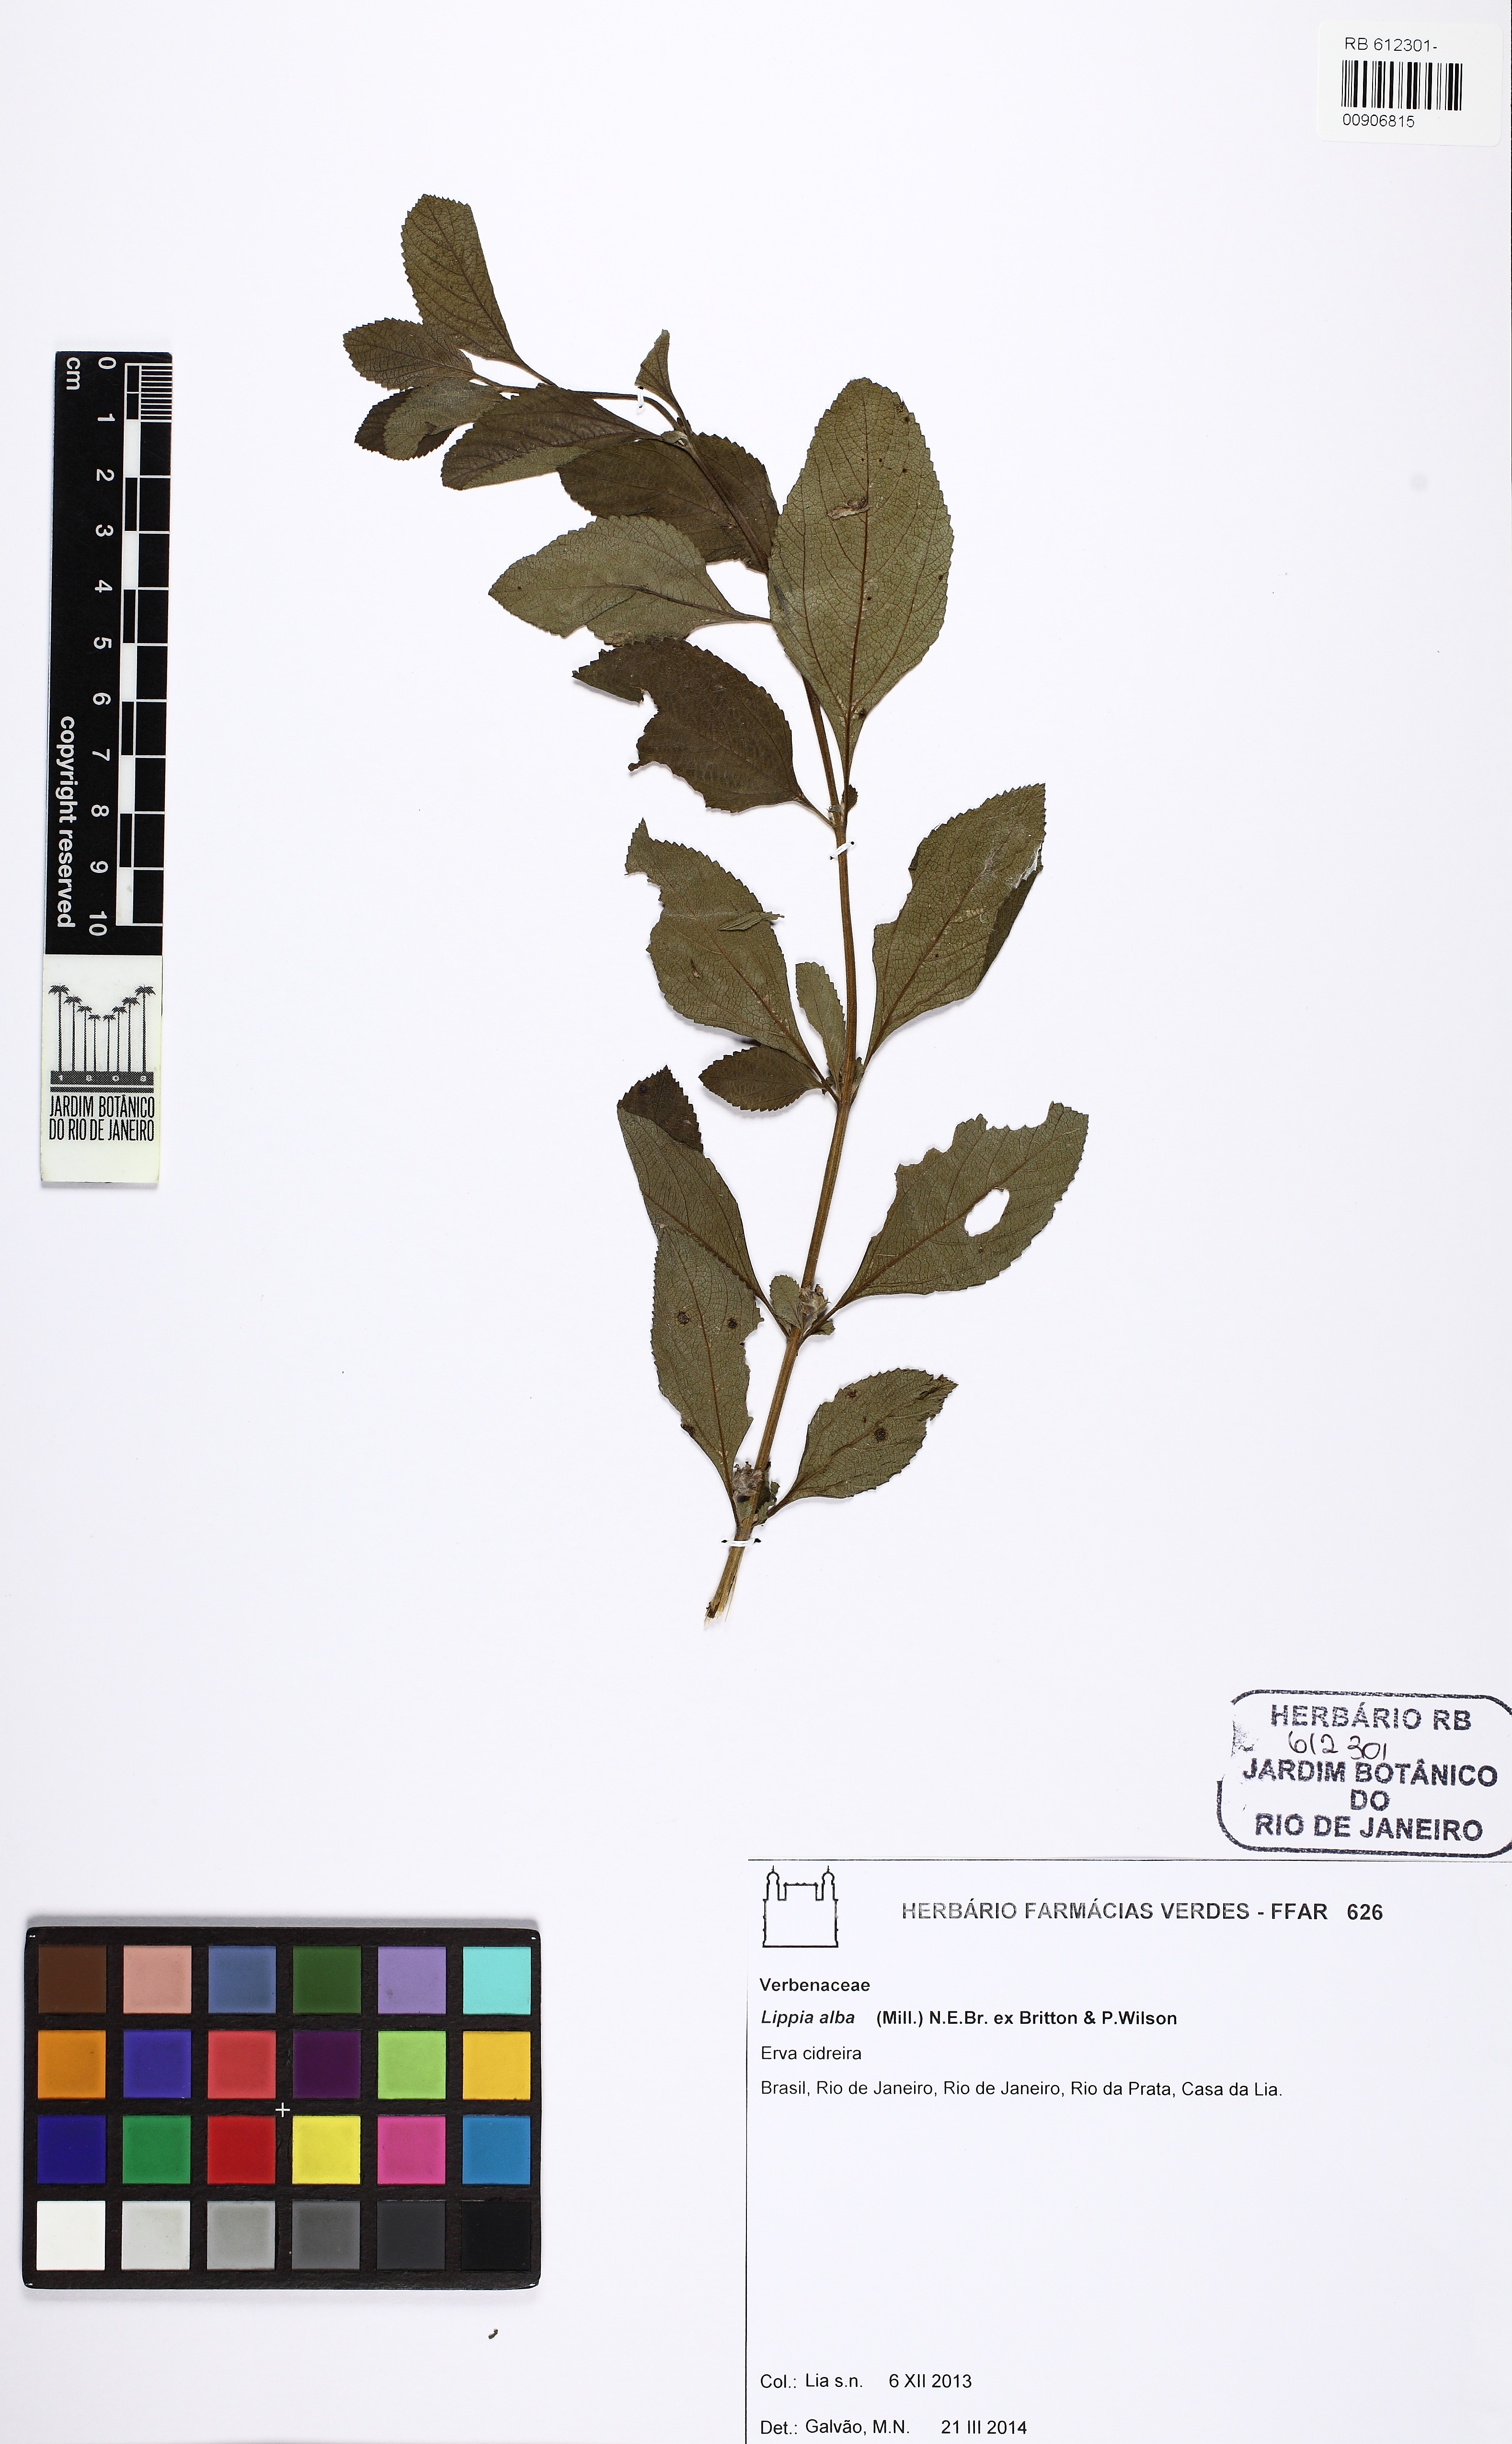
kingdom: Plantae
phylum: Tracheophyta
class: Magnoliopsida
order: Lamiales
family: Verbenaceae
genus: Lippia
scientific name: Lippia alba
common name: Bushy matgrass
